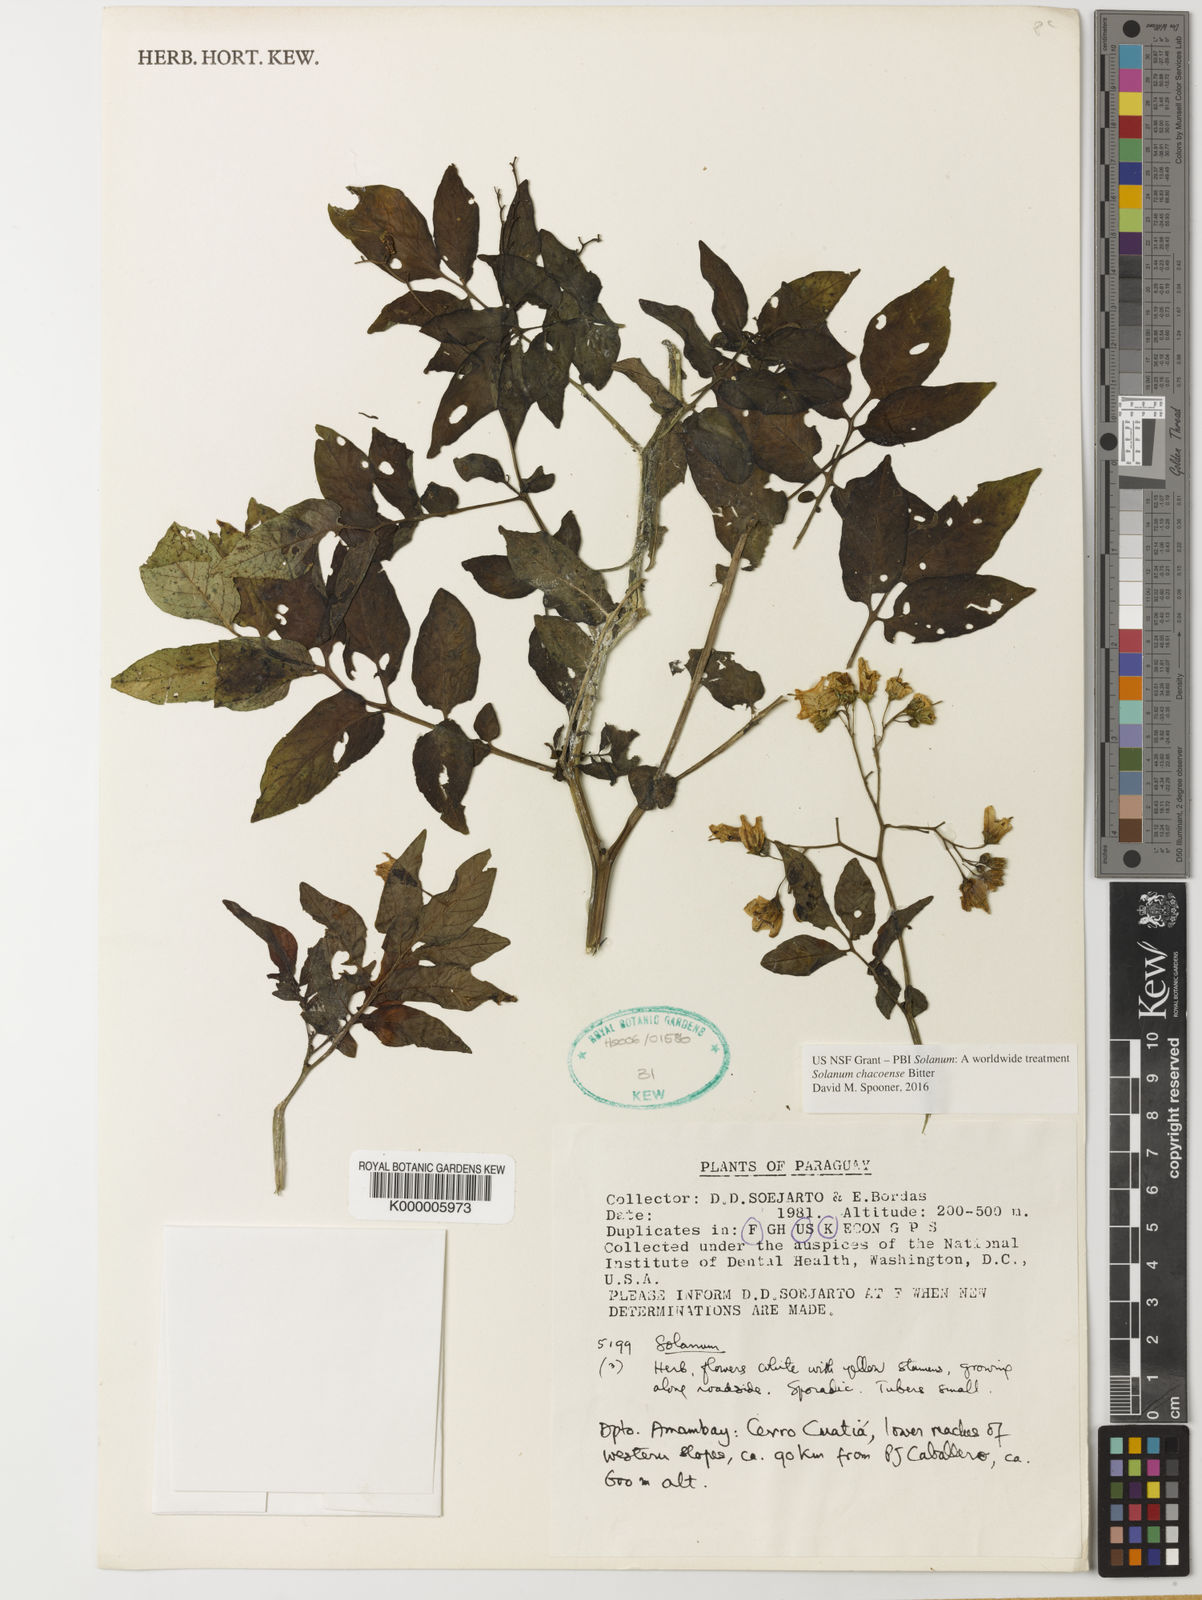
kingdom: Plantae
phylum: Tracheophyta
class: Magnoliopsida
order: Solanales
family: Solanaceae
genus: Solanum
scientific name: Solanum chacoense
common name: Chaco potato
